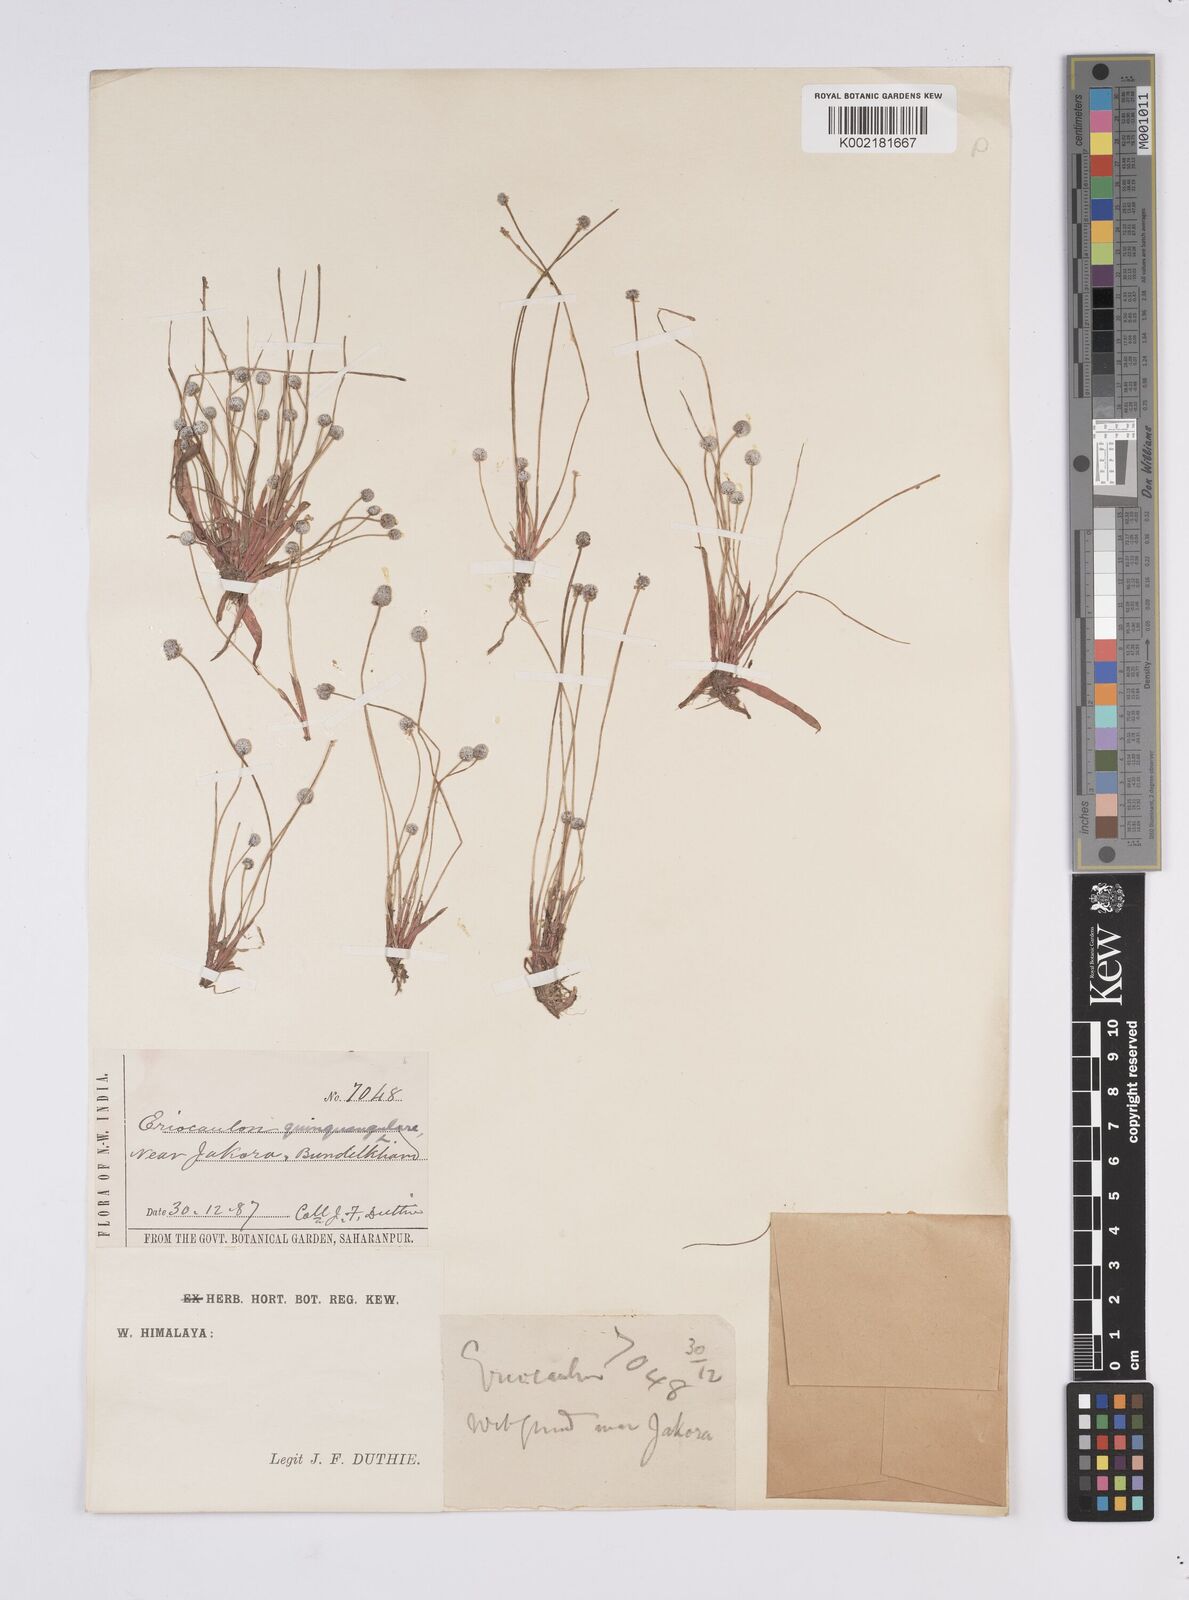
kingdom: Plantae
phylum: Tracheophyta
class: Liliopsida
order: Poales
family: Eriocaulaceae
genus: Eriocaulon
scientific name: Eriocaulon quinquangulare
